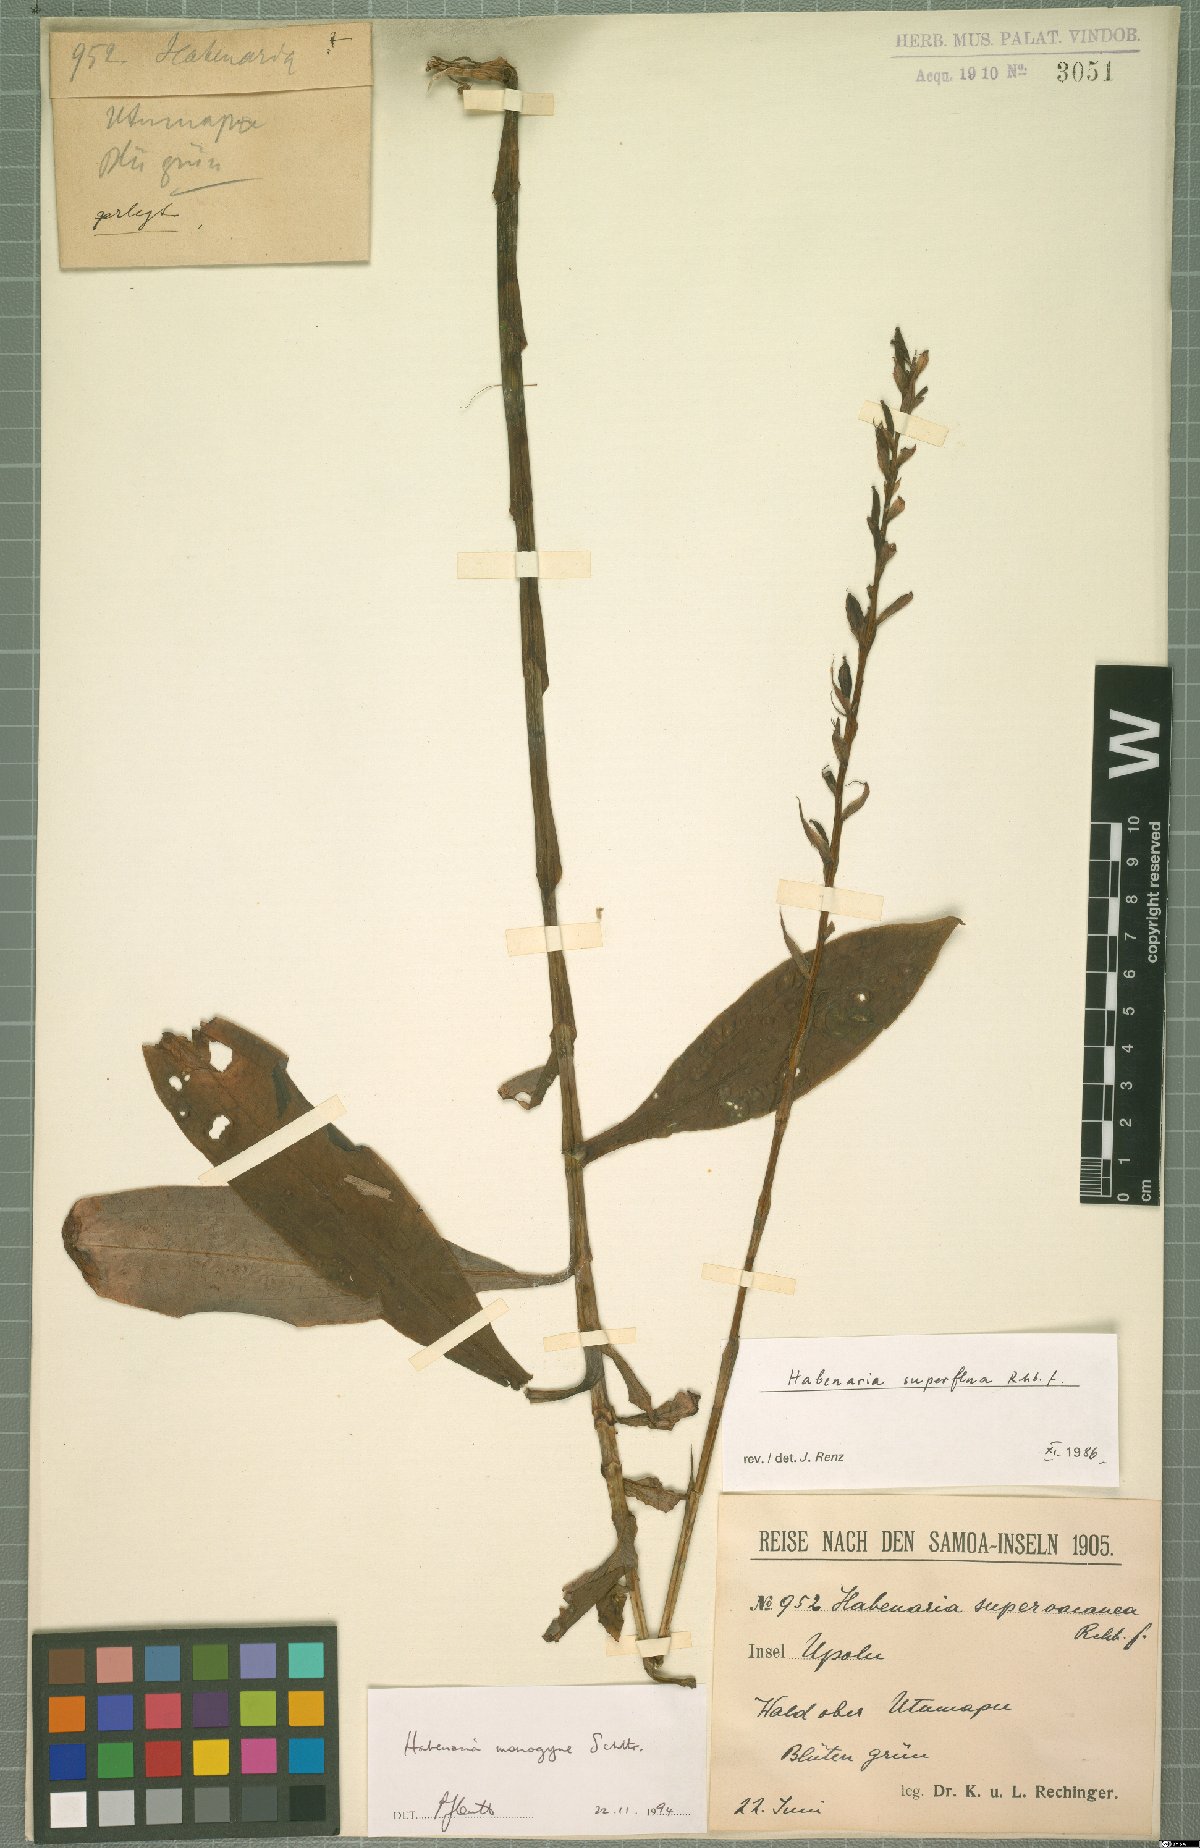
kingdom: Plantae
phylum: Tracheophyta
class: Liliopsida
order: Asparagales
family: Orchidaceae
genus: Habenaria
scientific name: Habenaria monogyne
